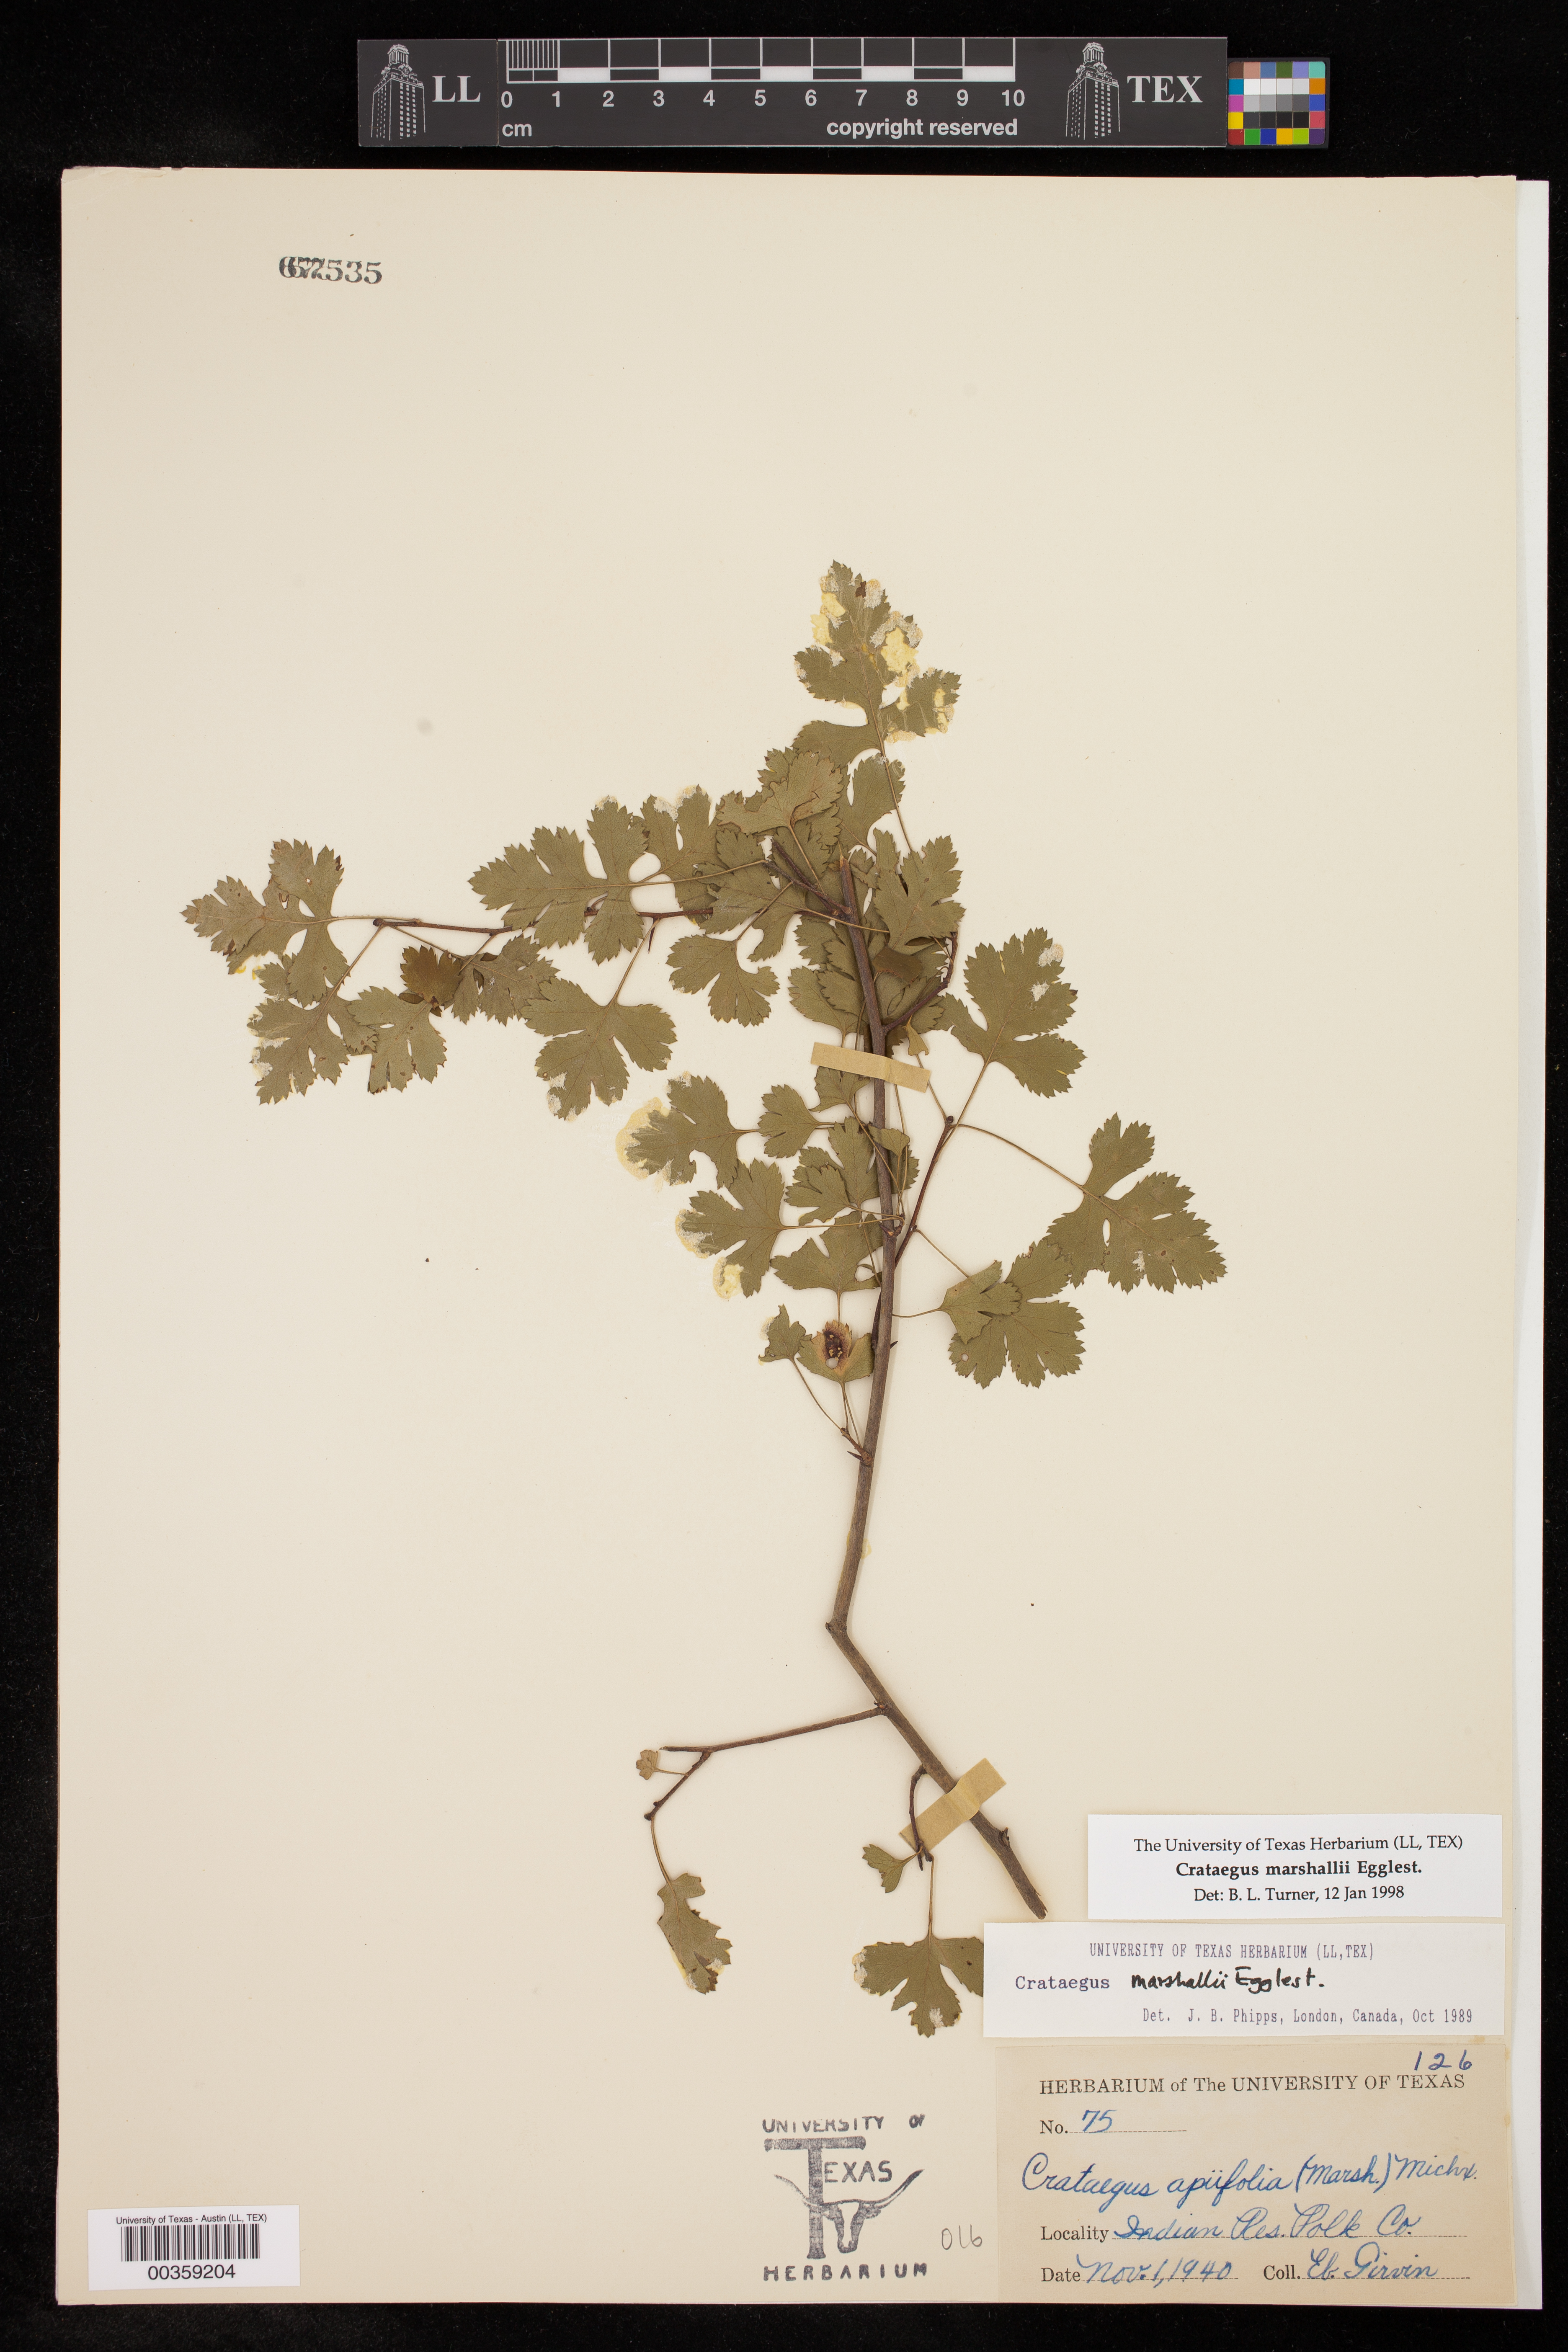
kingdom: Plantae
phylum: Tracheophyta
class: Magnoliopsida
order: Rosales
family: Rosaceae
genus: Crataegus
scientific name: Crataegus marshallii
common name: Parsley-hawthorn
